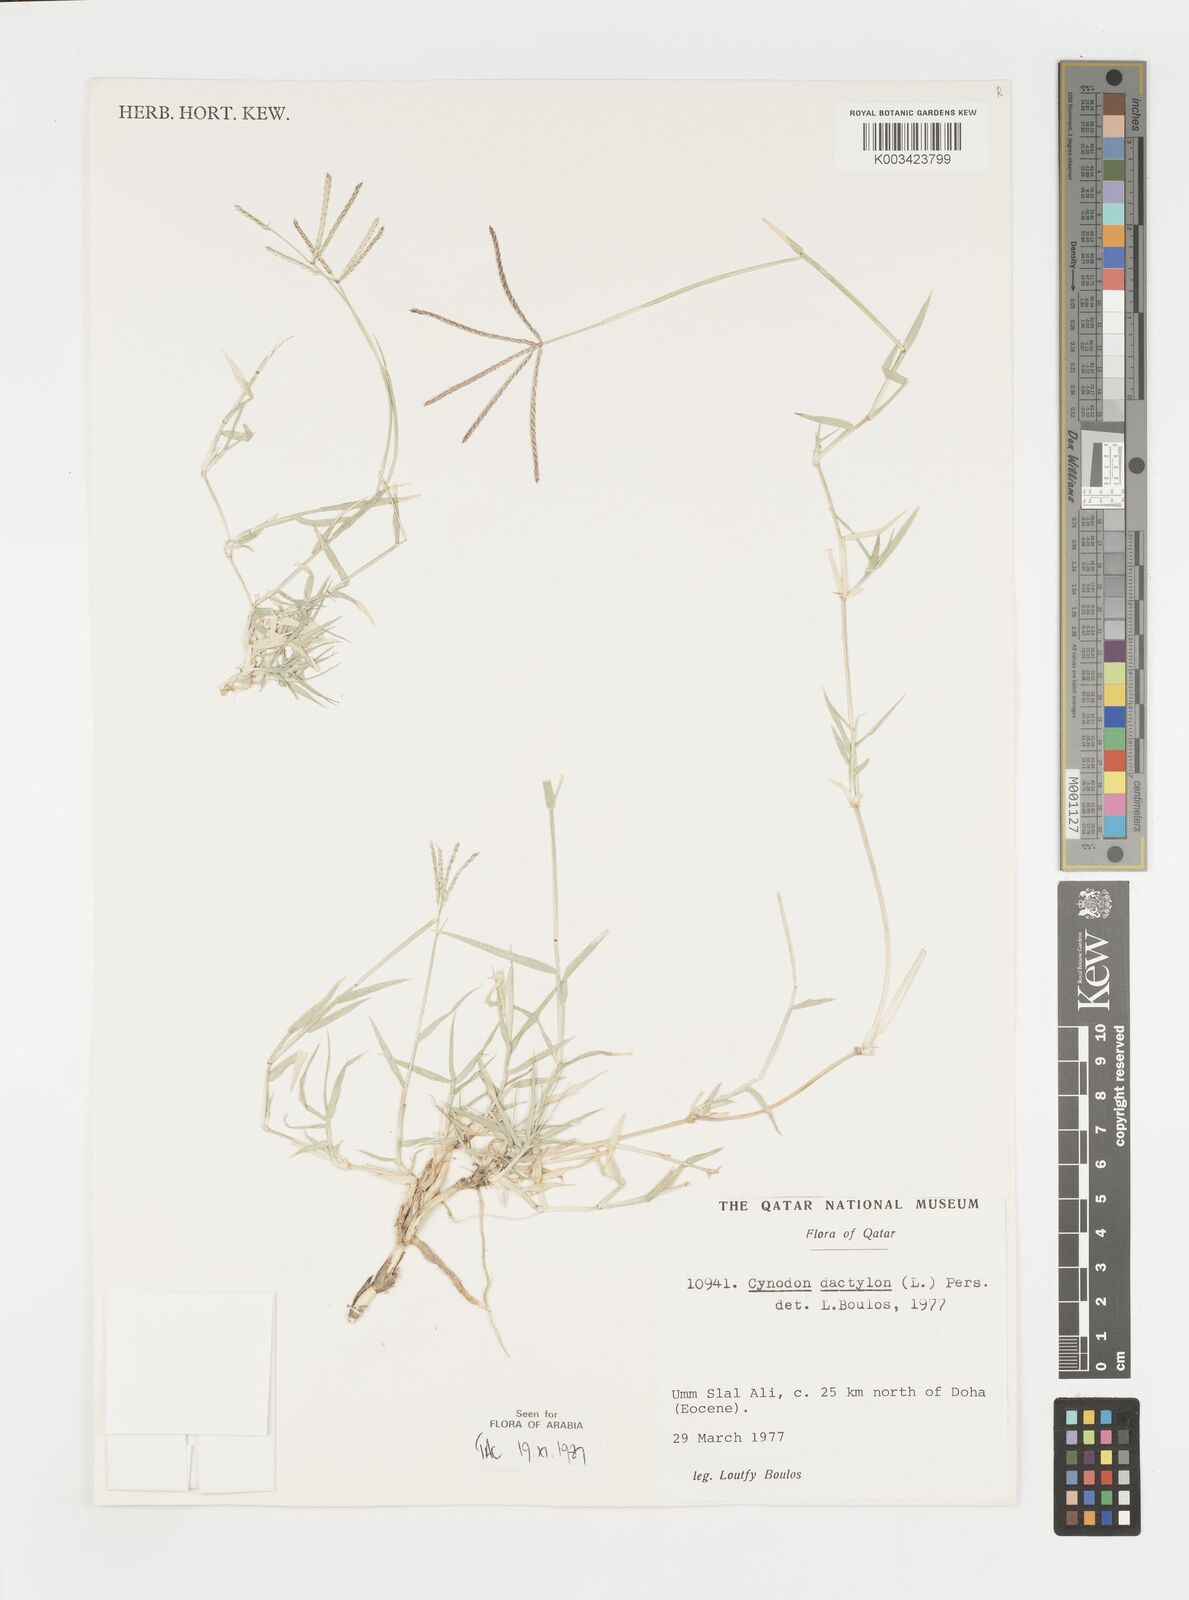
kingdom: Plantae
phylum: Tracheophyta
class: Liliopsida
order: Poales
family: Poaceae
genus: Cynodon
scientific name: Cynodon dactylon
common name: Bermuda grass
